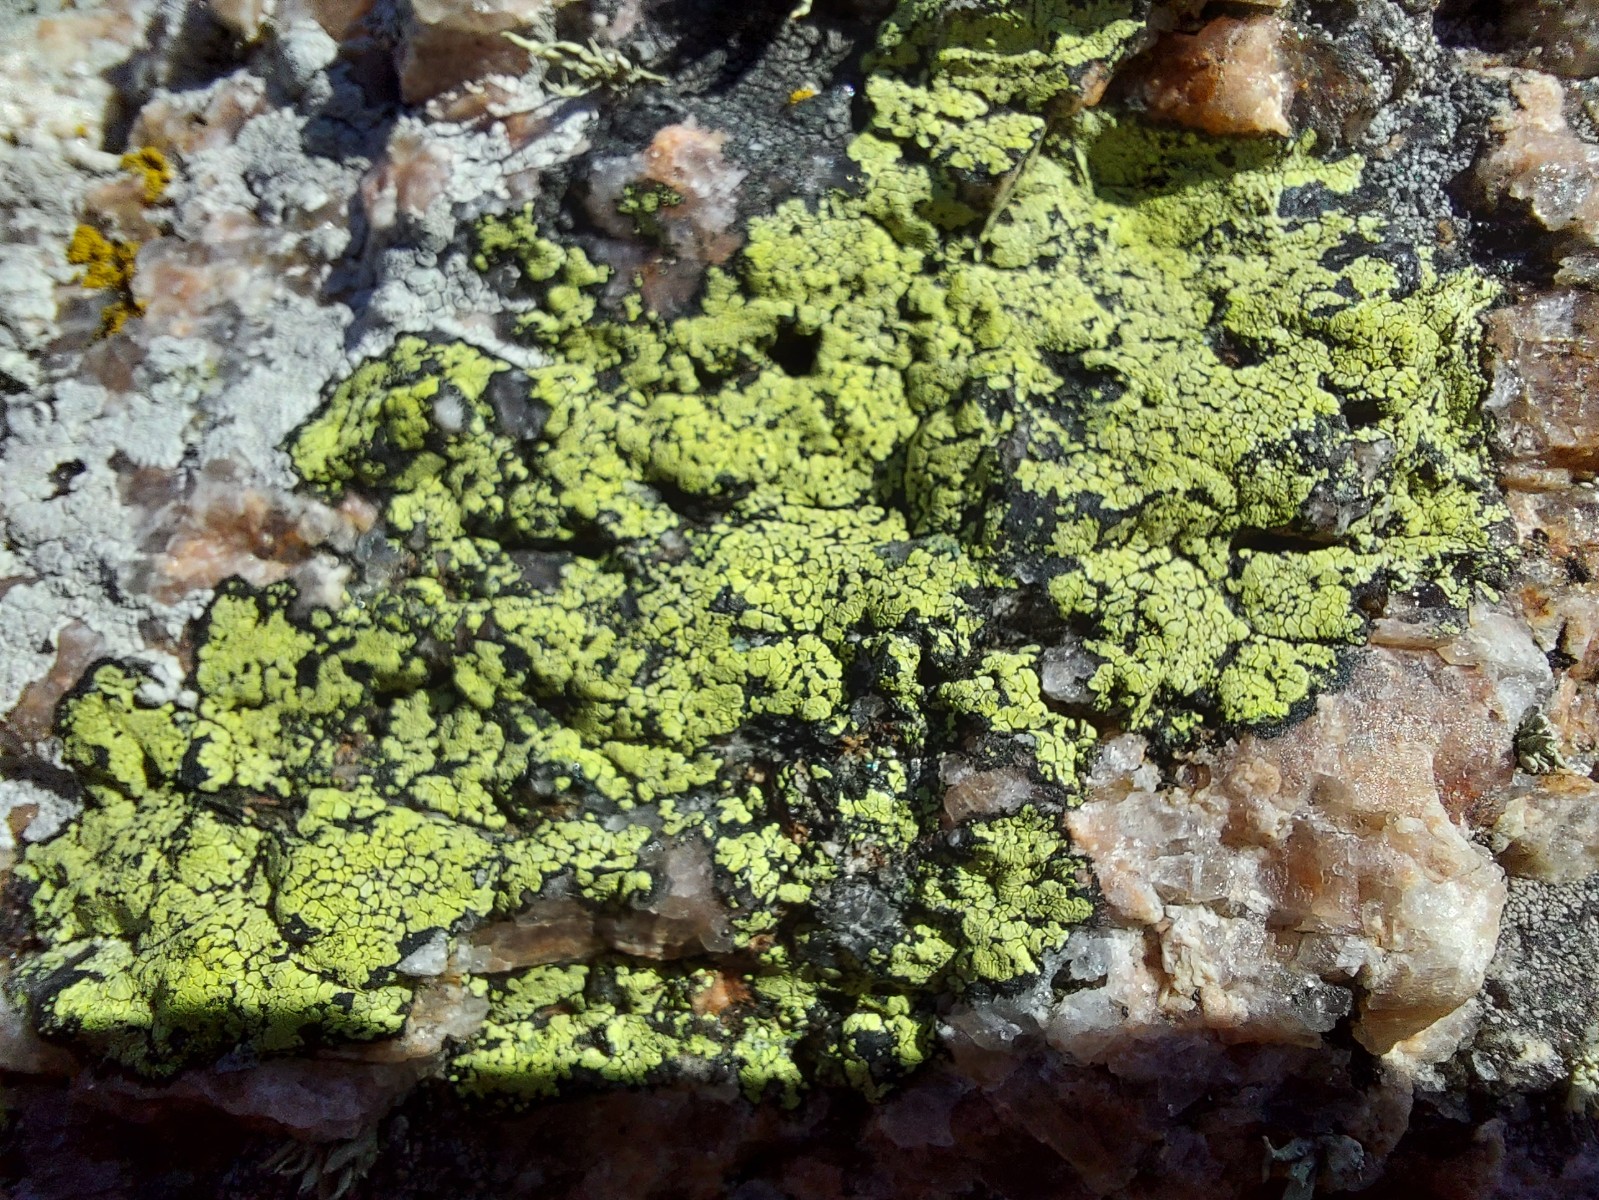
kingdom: Fungi
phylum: Ascomycota
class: Lecanoromycetes
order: Rhizocarpales
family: Rhizocarpaceae
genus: Rhizocarpon
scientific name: Rhizocarpon geographicum
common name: gulgrøn landkortlav
